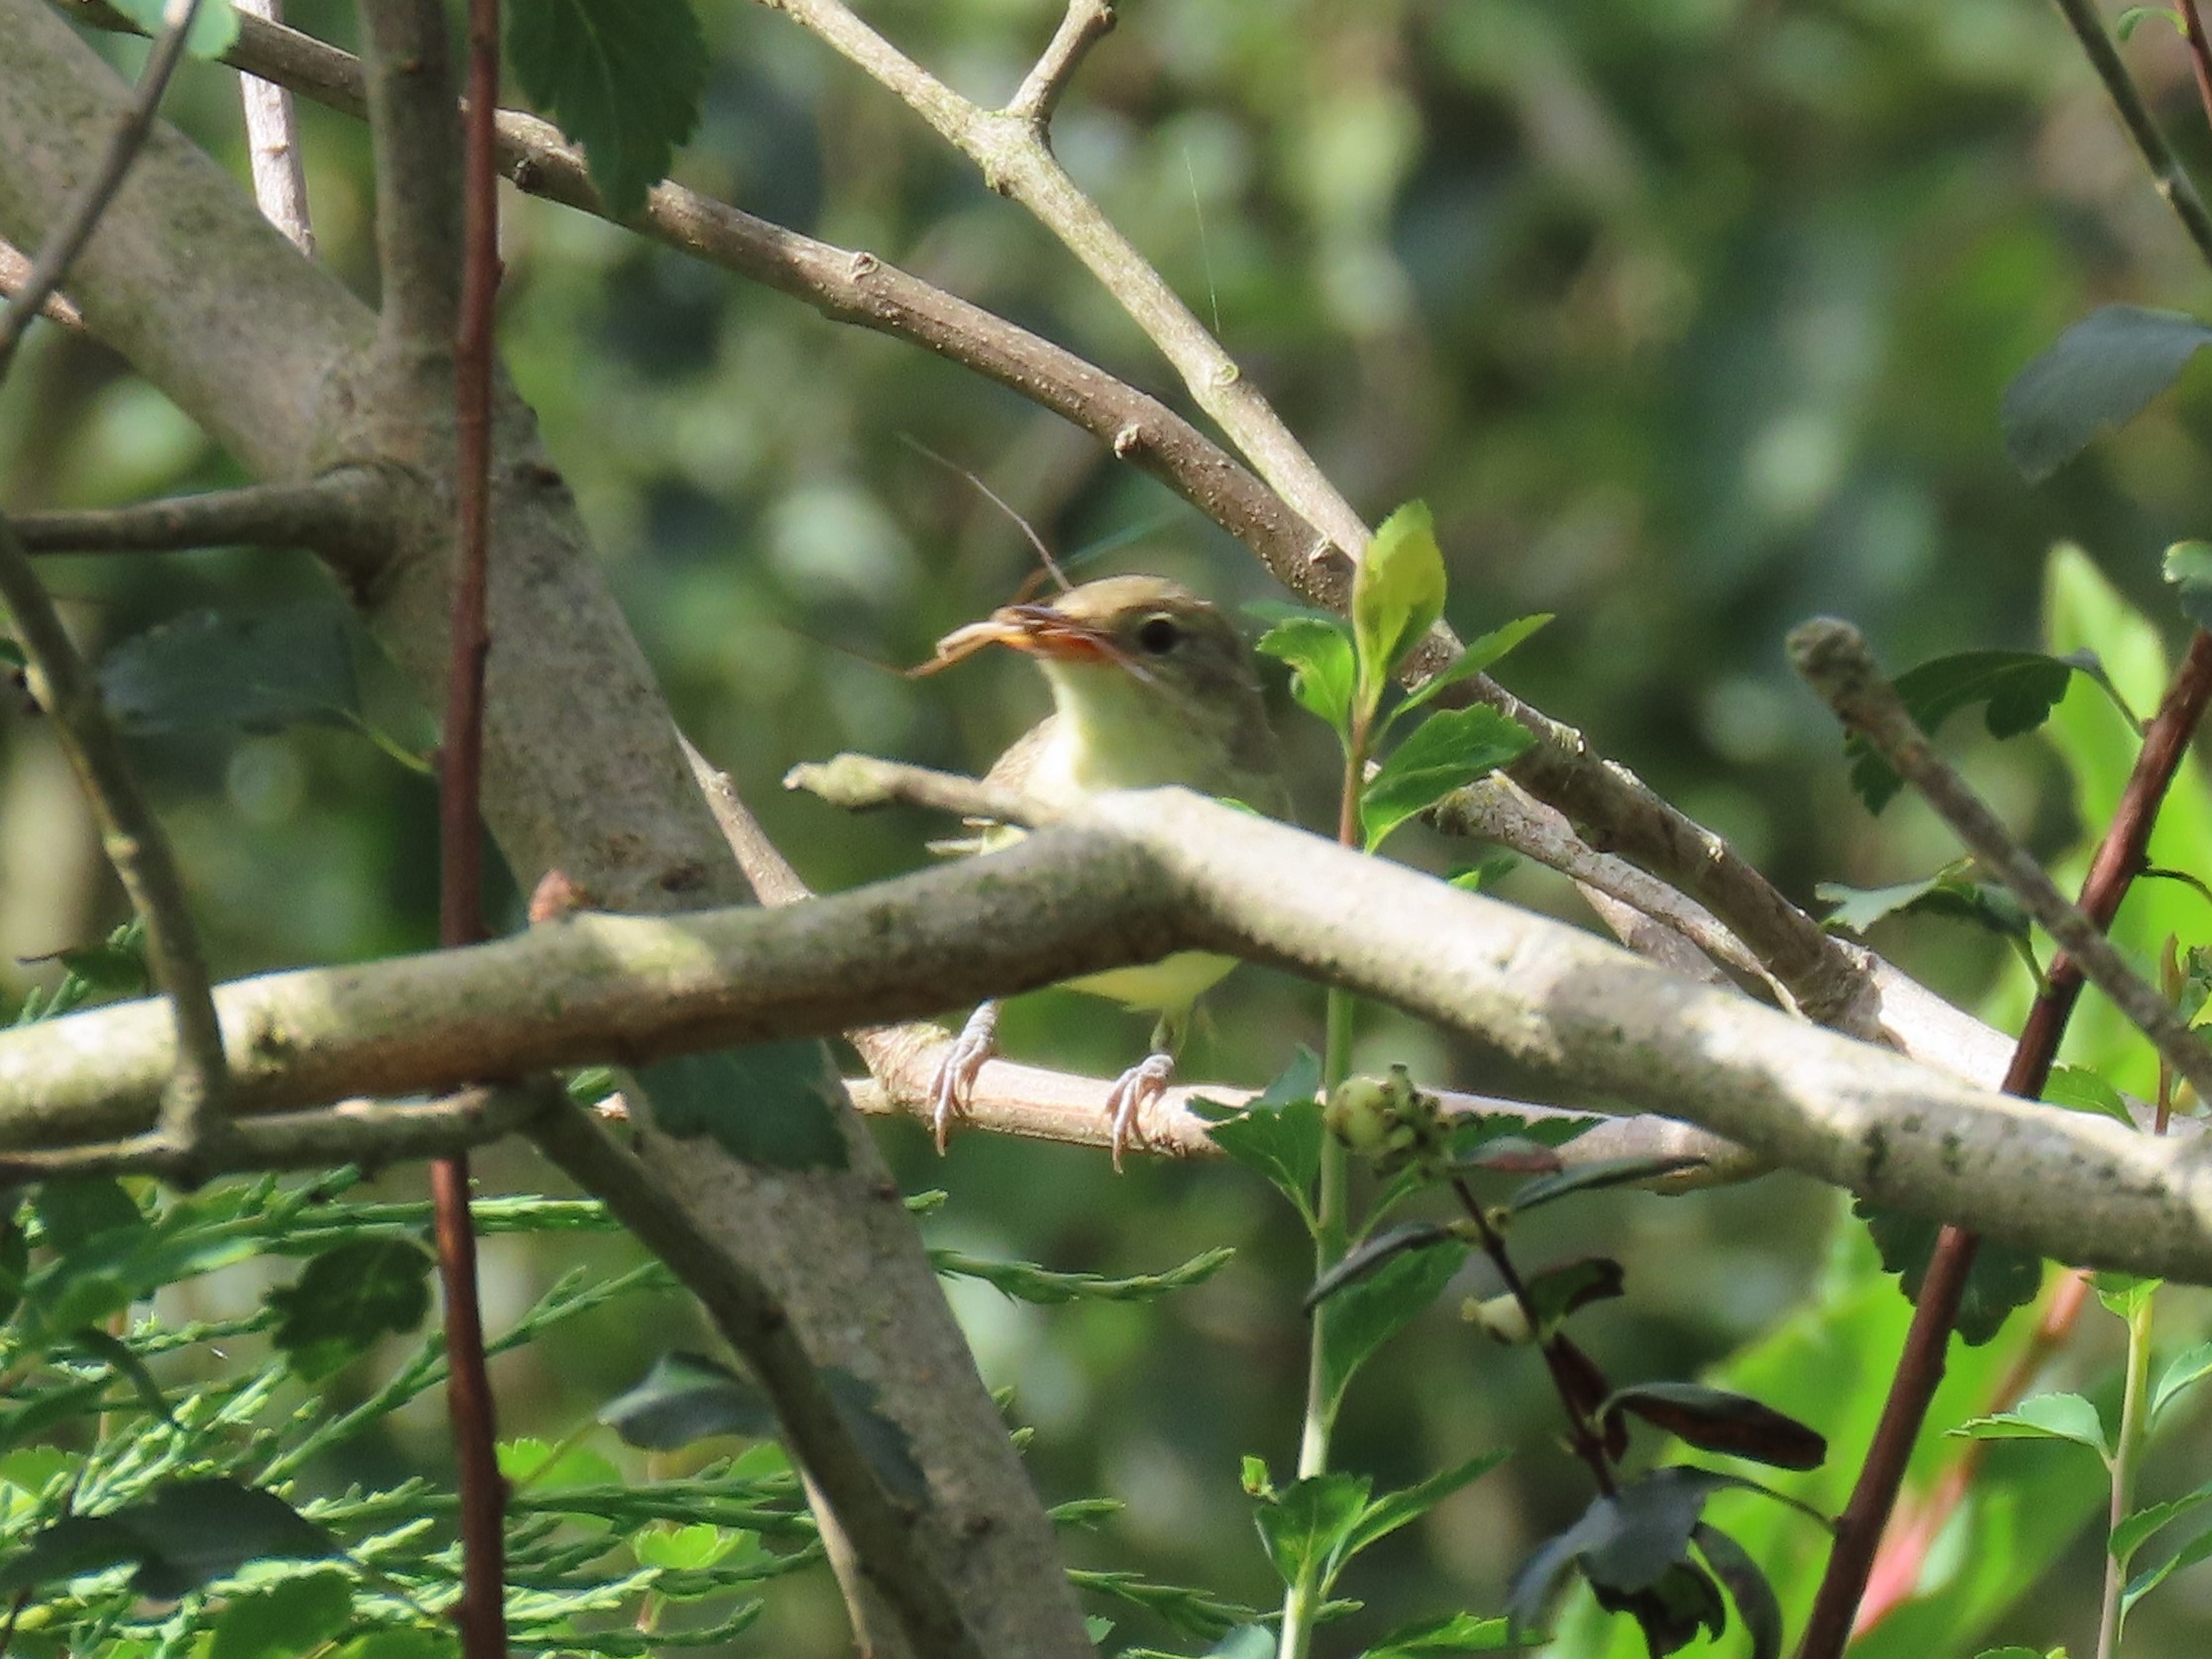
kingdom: Animalia
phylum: Chordata
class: Aves
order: Passeriformes
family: Acrocephalidae
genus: Hippolais
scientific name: Hippolais icterina
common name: Gulbug
